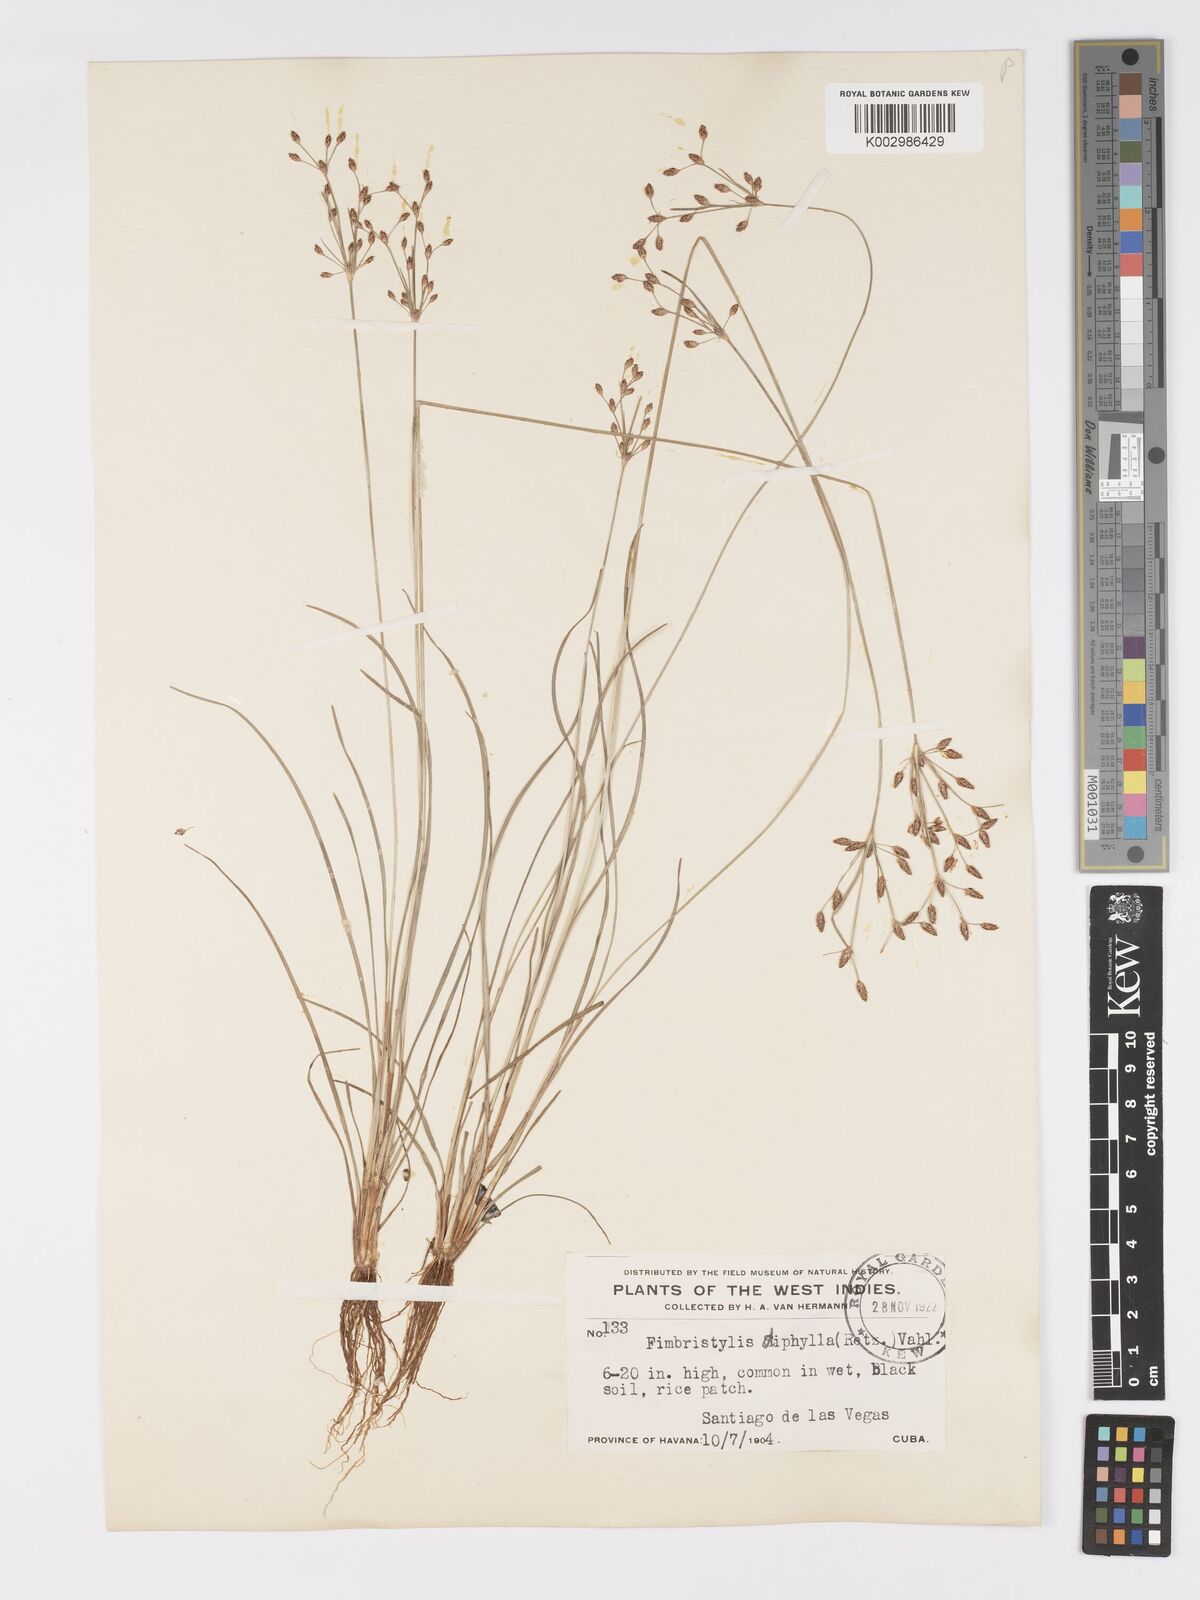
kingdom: Plantae
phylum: Tracheophyta
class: Liliopsida
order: Poales
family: Cyperaceae
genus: Fimbristylis
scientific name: Fimbristylis dichotoma
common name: Forked fimbry
